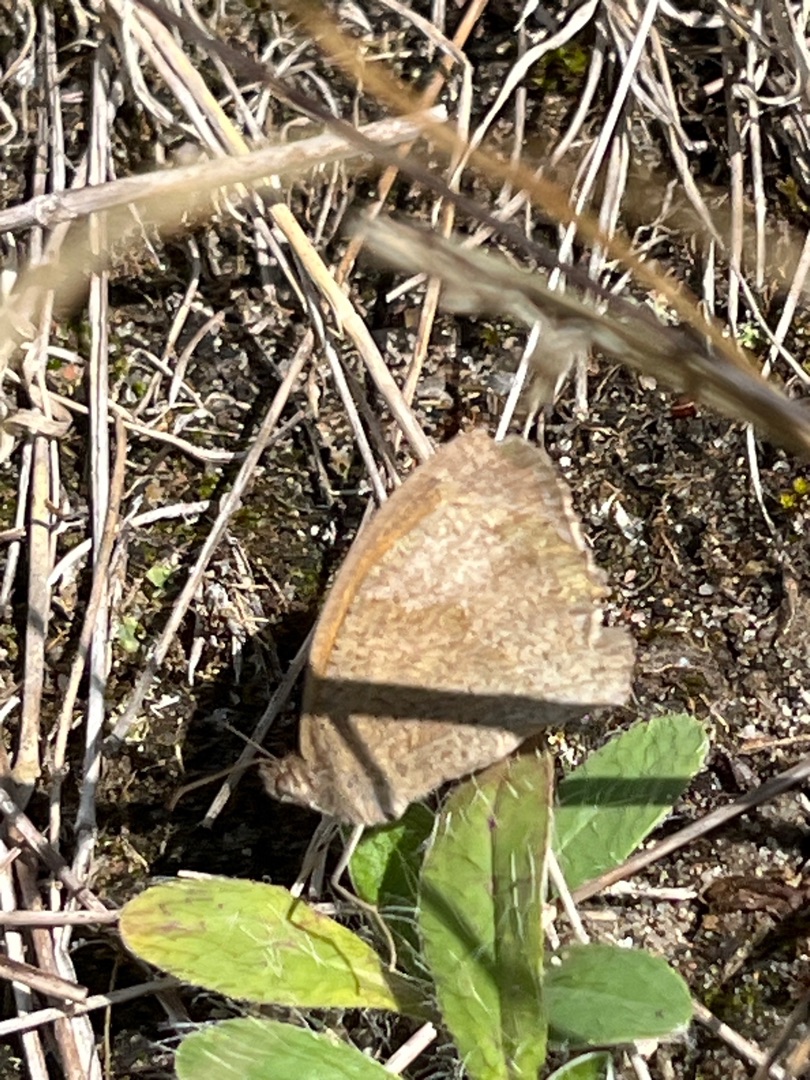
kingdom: Animalia
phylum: Arthropoda
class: Insecta
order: Lepidoptera
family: Nymphalidae
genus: Maniola
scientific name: Maniola jurtina
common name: Græsrandøje
